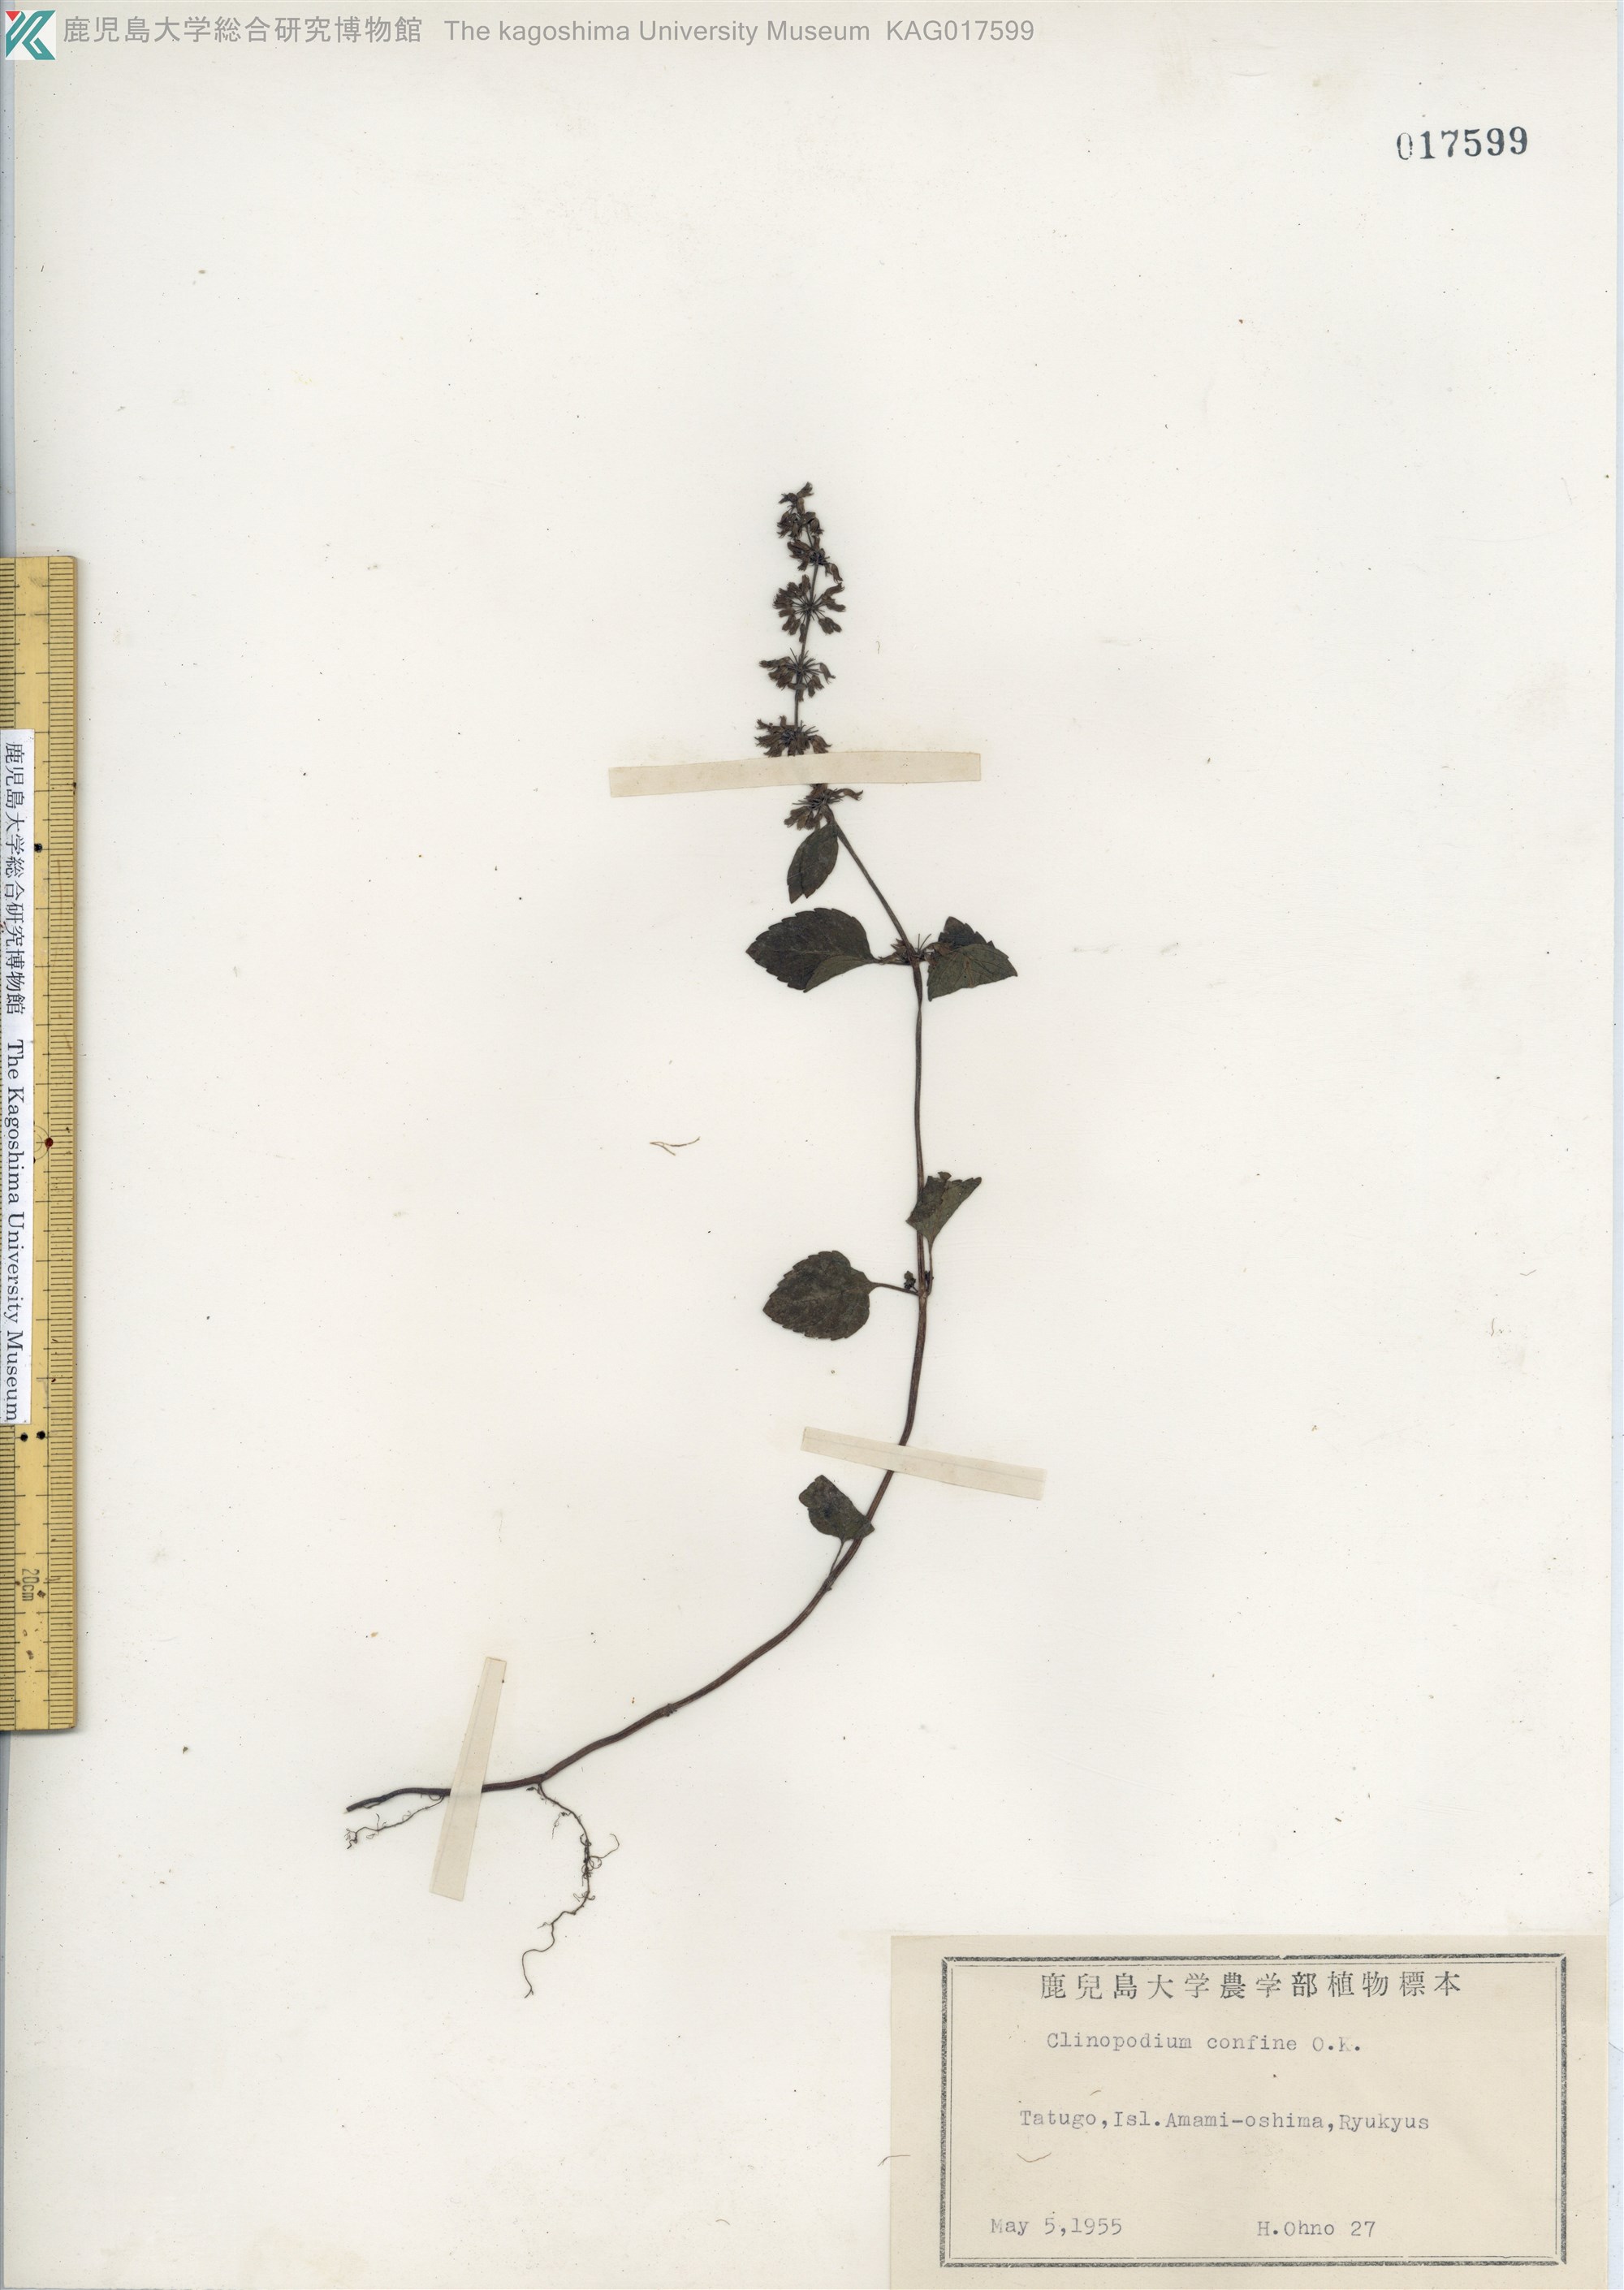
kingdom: Plantae
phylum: Tracheophyta
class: Magnoliopsida
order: Lamiales
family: Lamiaceae
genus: Clinopodium
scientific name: Clinopodium gracile
